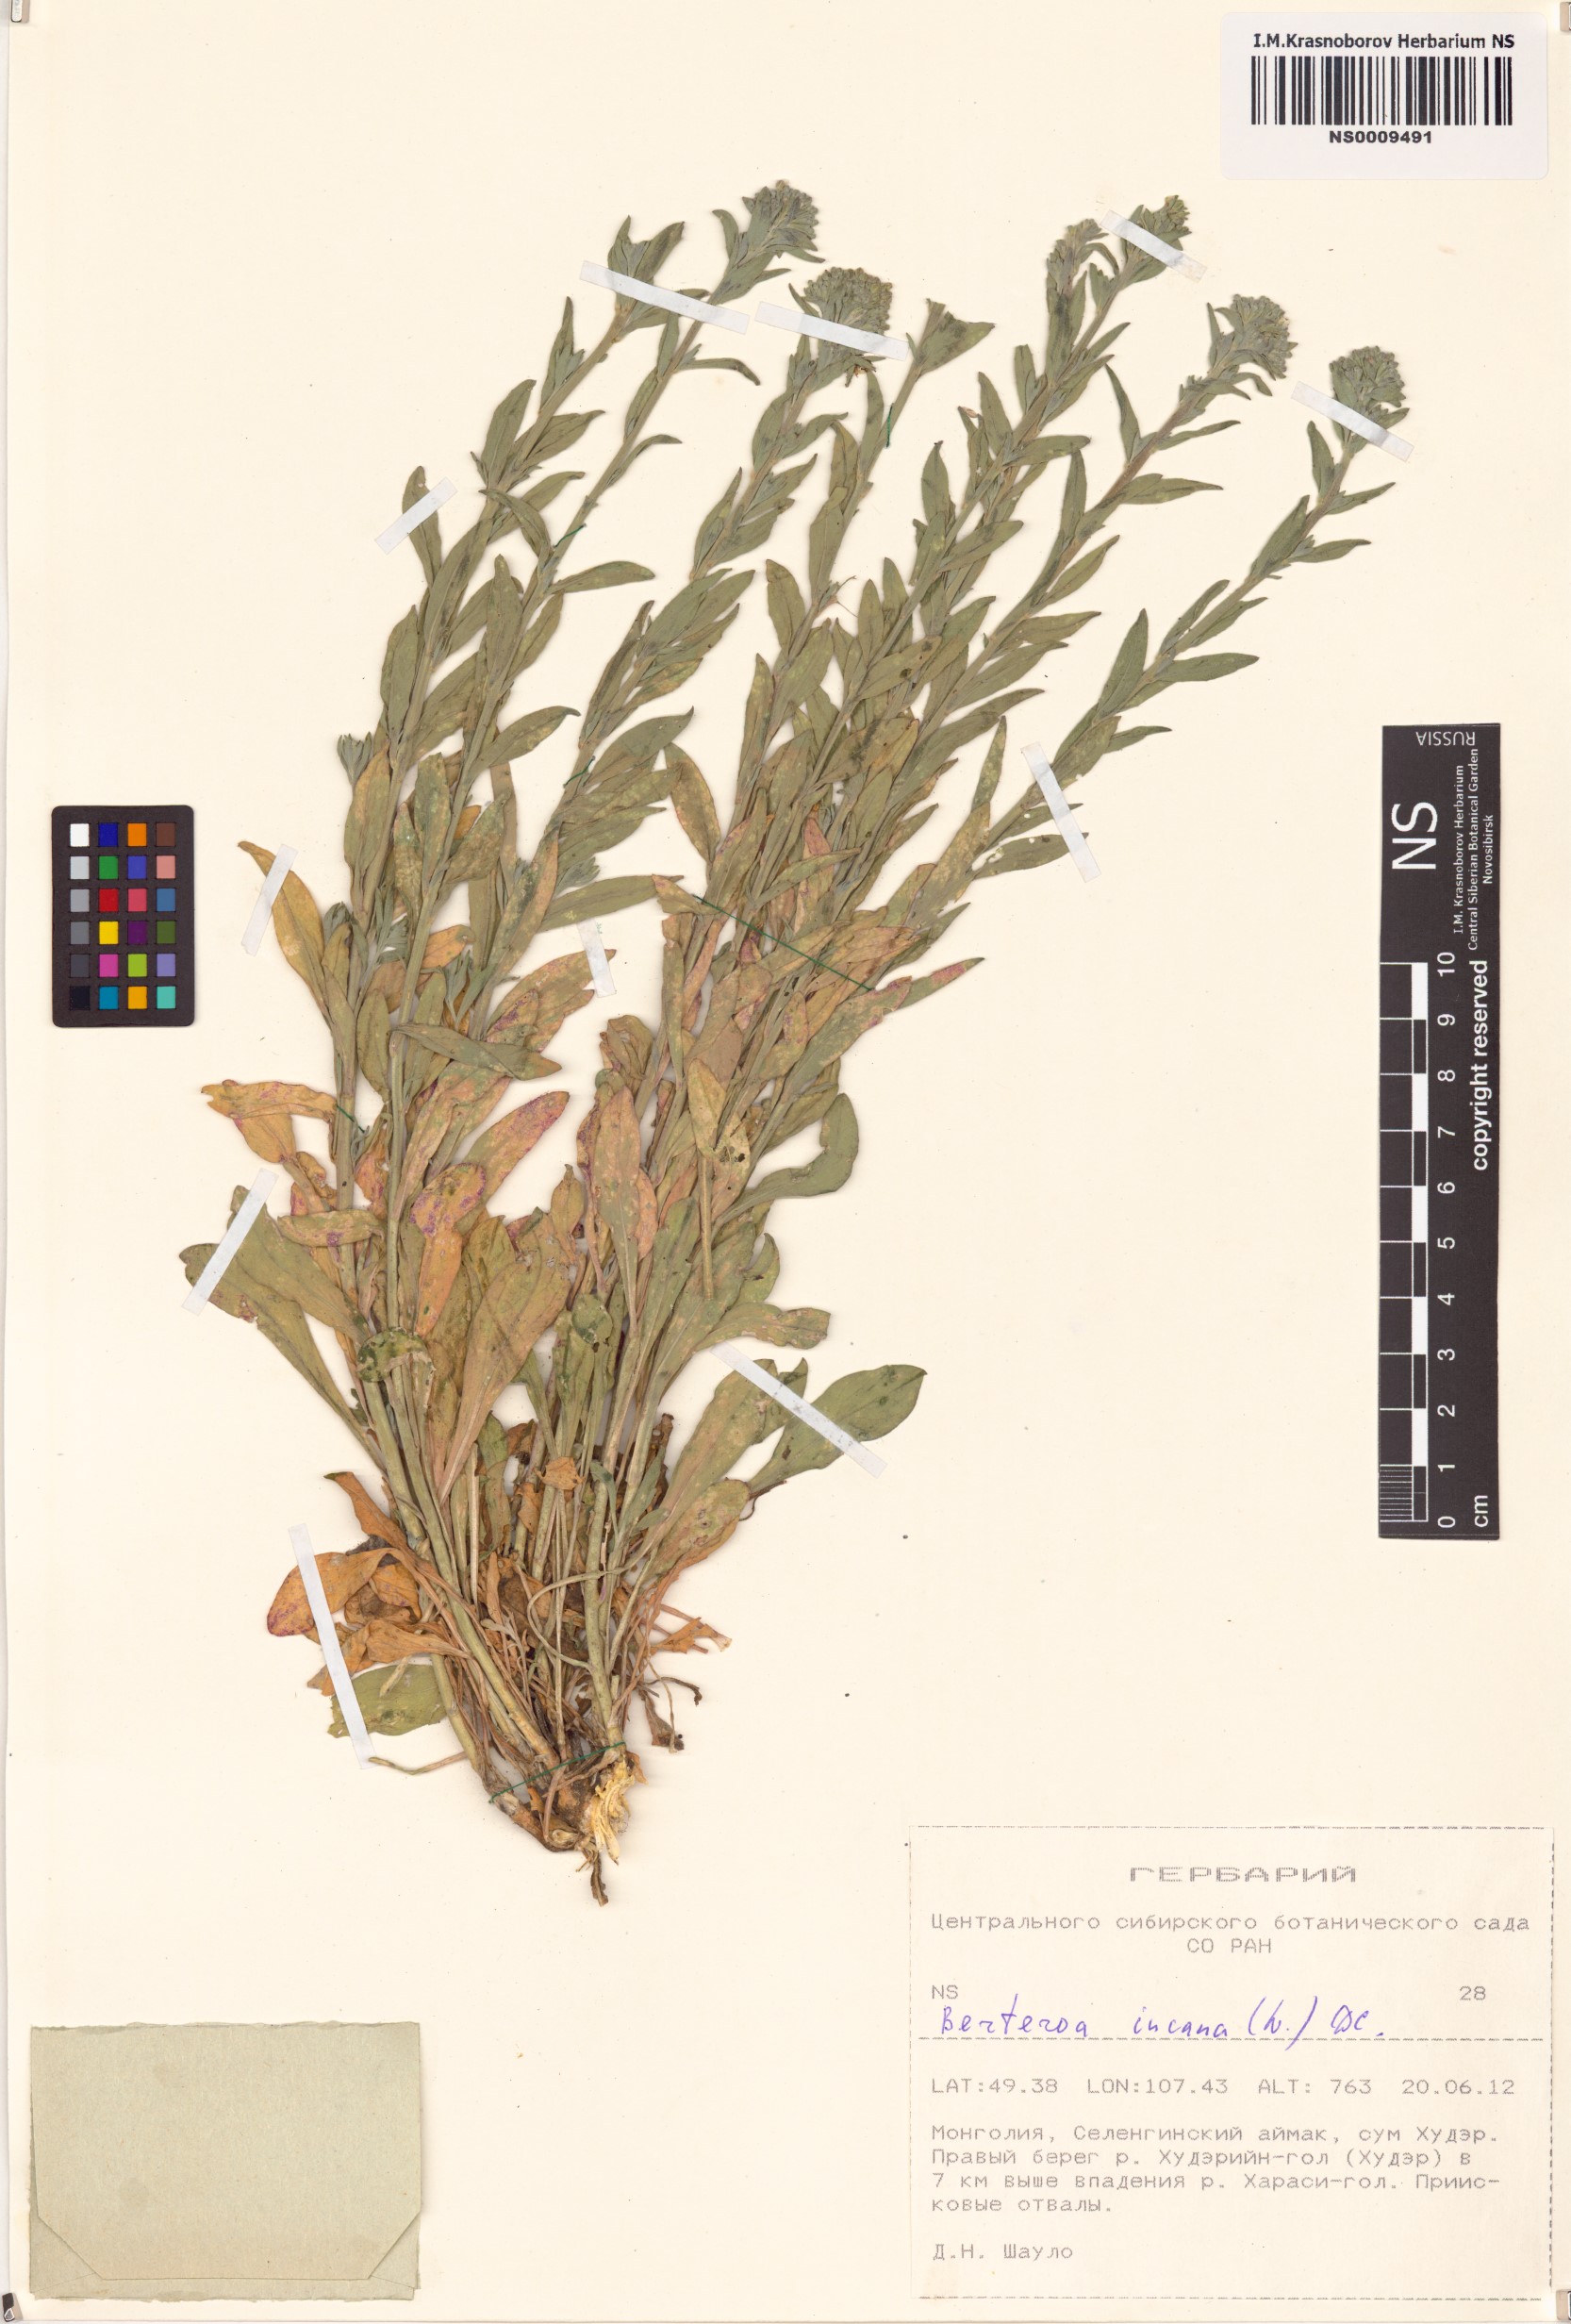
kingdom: Plantae
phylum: Tracheophyta
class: Magnoliopsida
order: Brassicales
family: Brassicaceae
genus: Berteroa
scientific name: Berteroa incana
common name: Hoary alison
